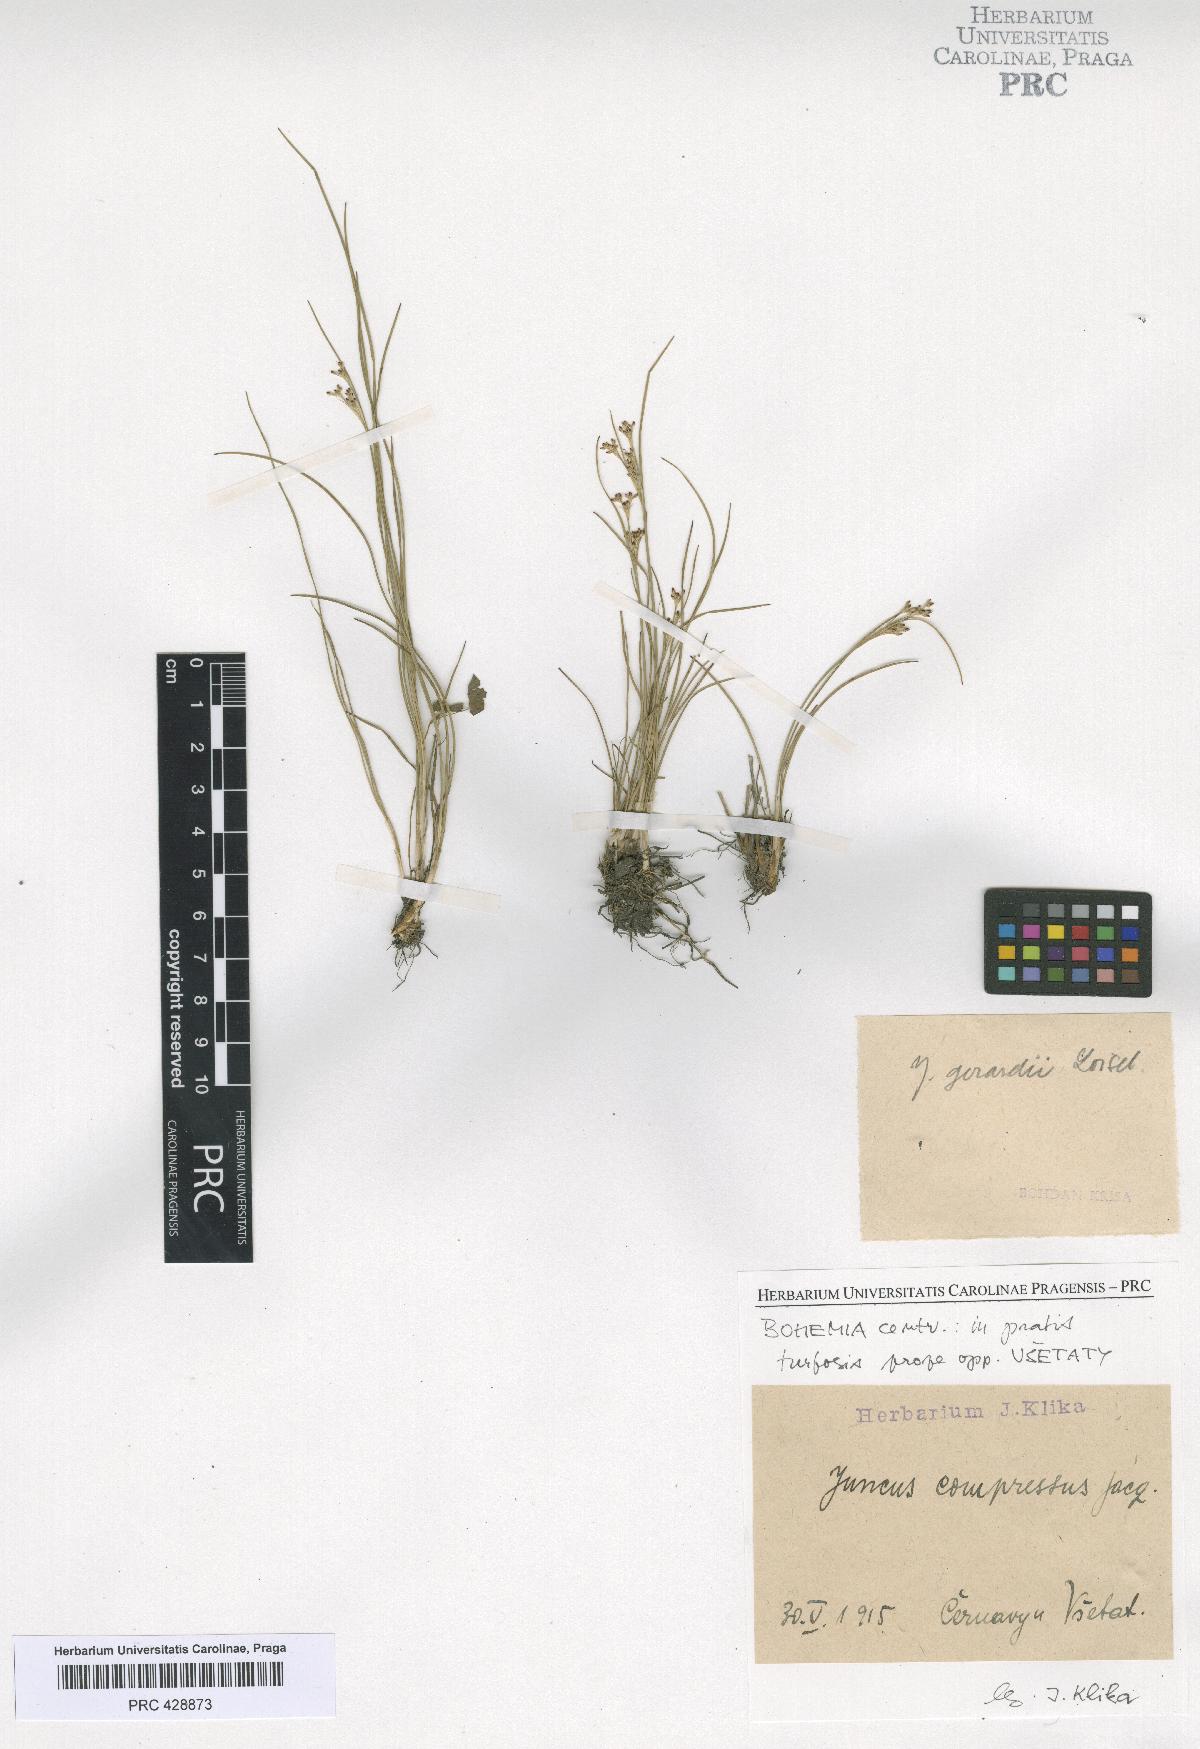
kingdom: Plantae
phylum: Tracheophyta
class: Liliopsida
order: Poales
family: Juncaceae
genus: Juncus
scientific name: Juncus compressus
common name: Round-fruited rush
